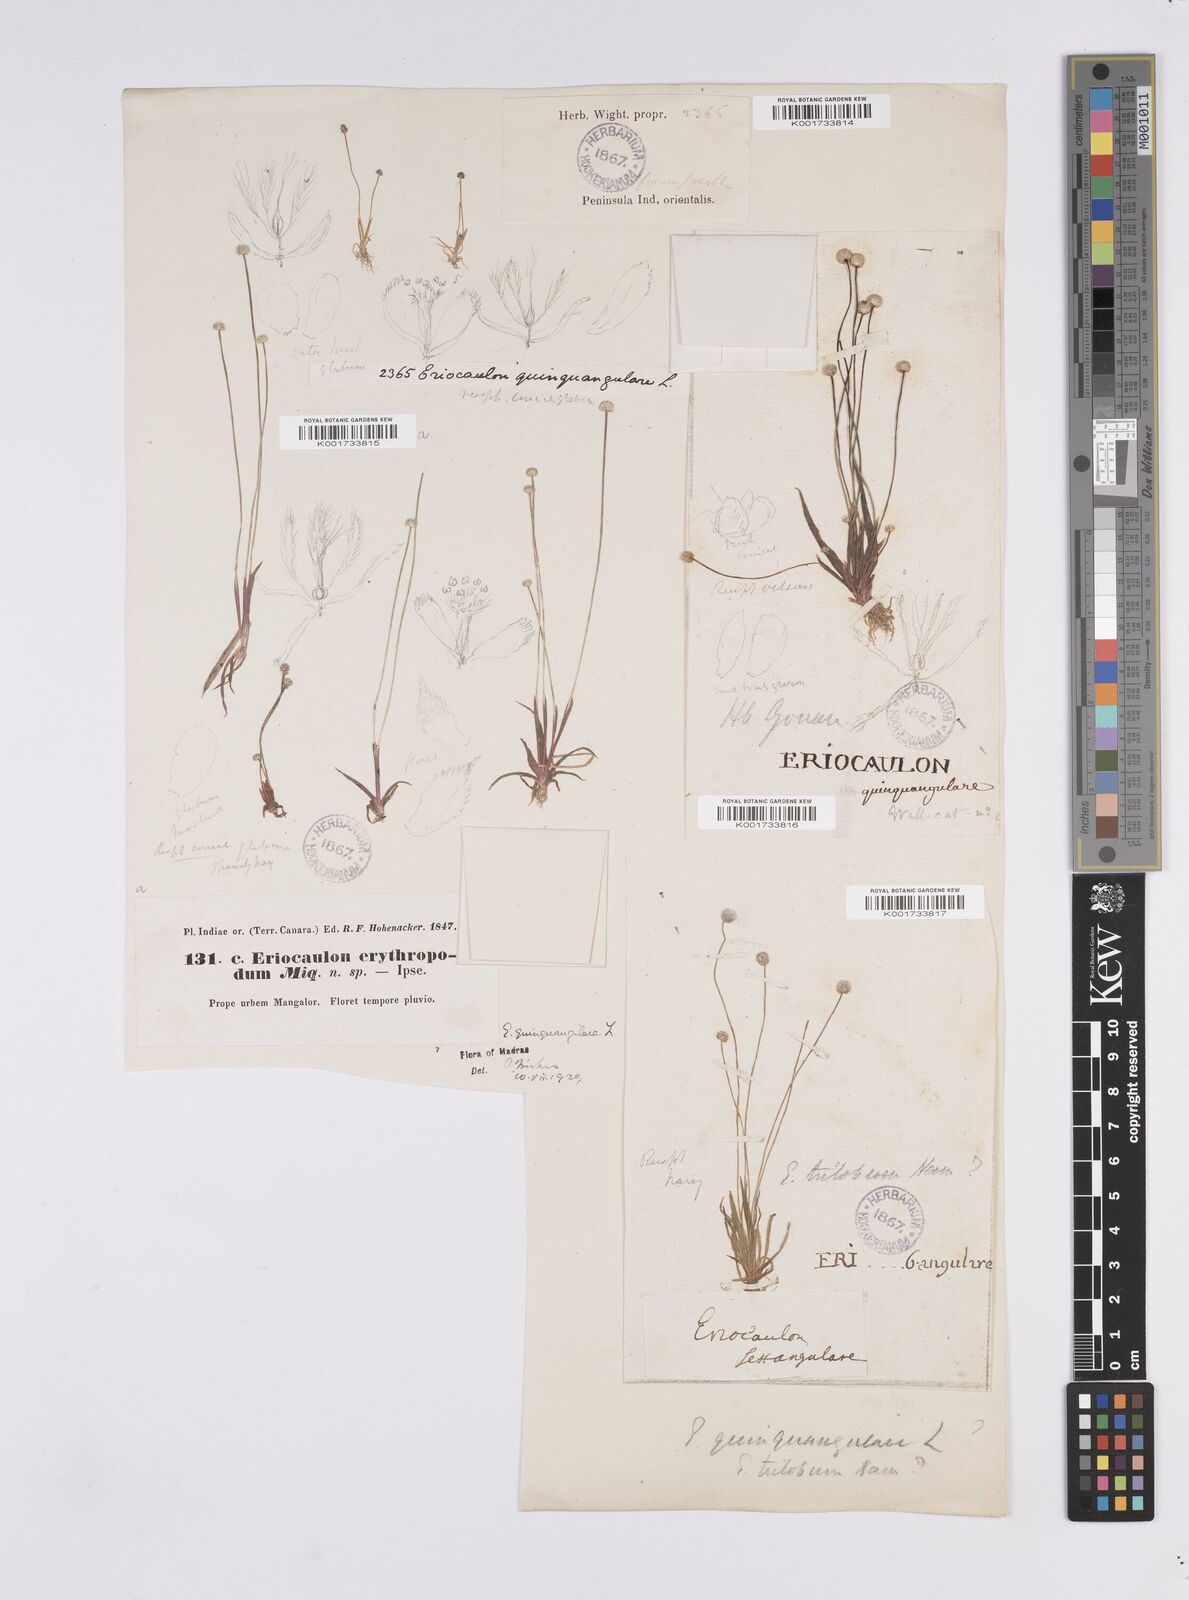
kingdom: Plantae
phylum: Tracheophyta
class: Liliopsida
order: Poales
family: Eriocaulaceae
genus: Eriocaulon
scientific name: Eriocaulon quinquangulare
